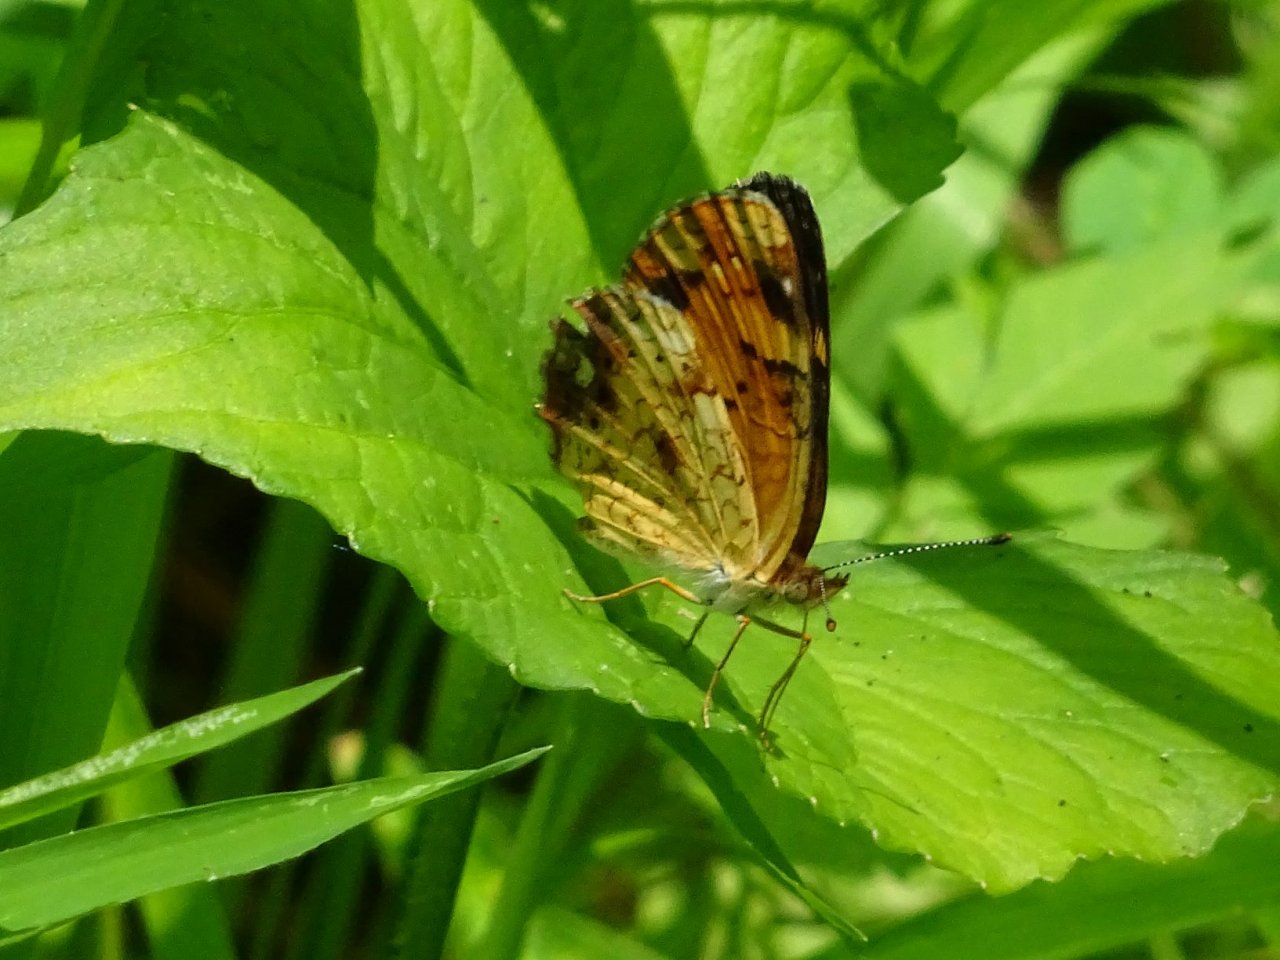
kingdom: Animalia
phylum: Arthropoda
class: Insecta
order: Lepidoptera
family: Nymphalidae
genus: Phyciodes
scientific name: Phyciodes tharos
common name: Pearl Crescent
